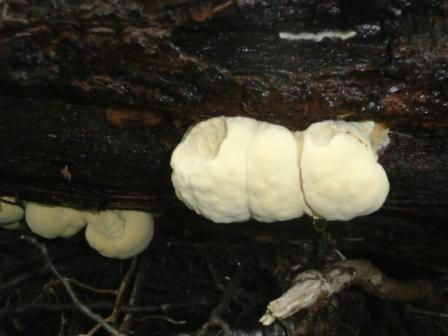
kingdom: Fungi
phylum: Basidiomycota
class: Agaricomycetes
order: Polyporales
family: Laetiporaceae
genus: Laetiporus
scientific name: Laetiporus sulphureus
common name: svovlporesvamp
